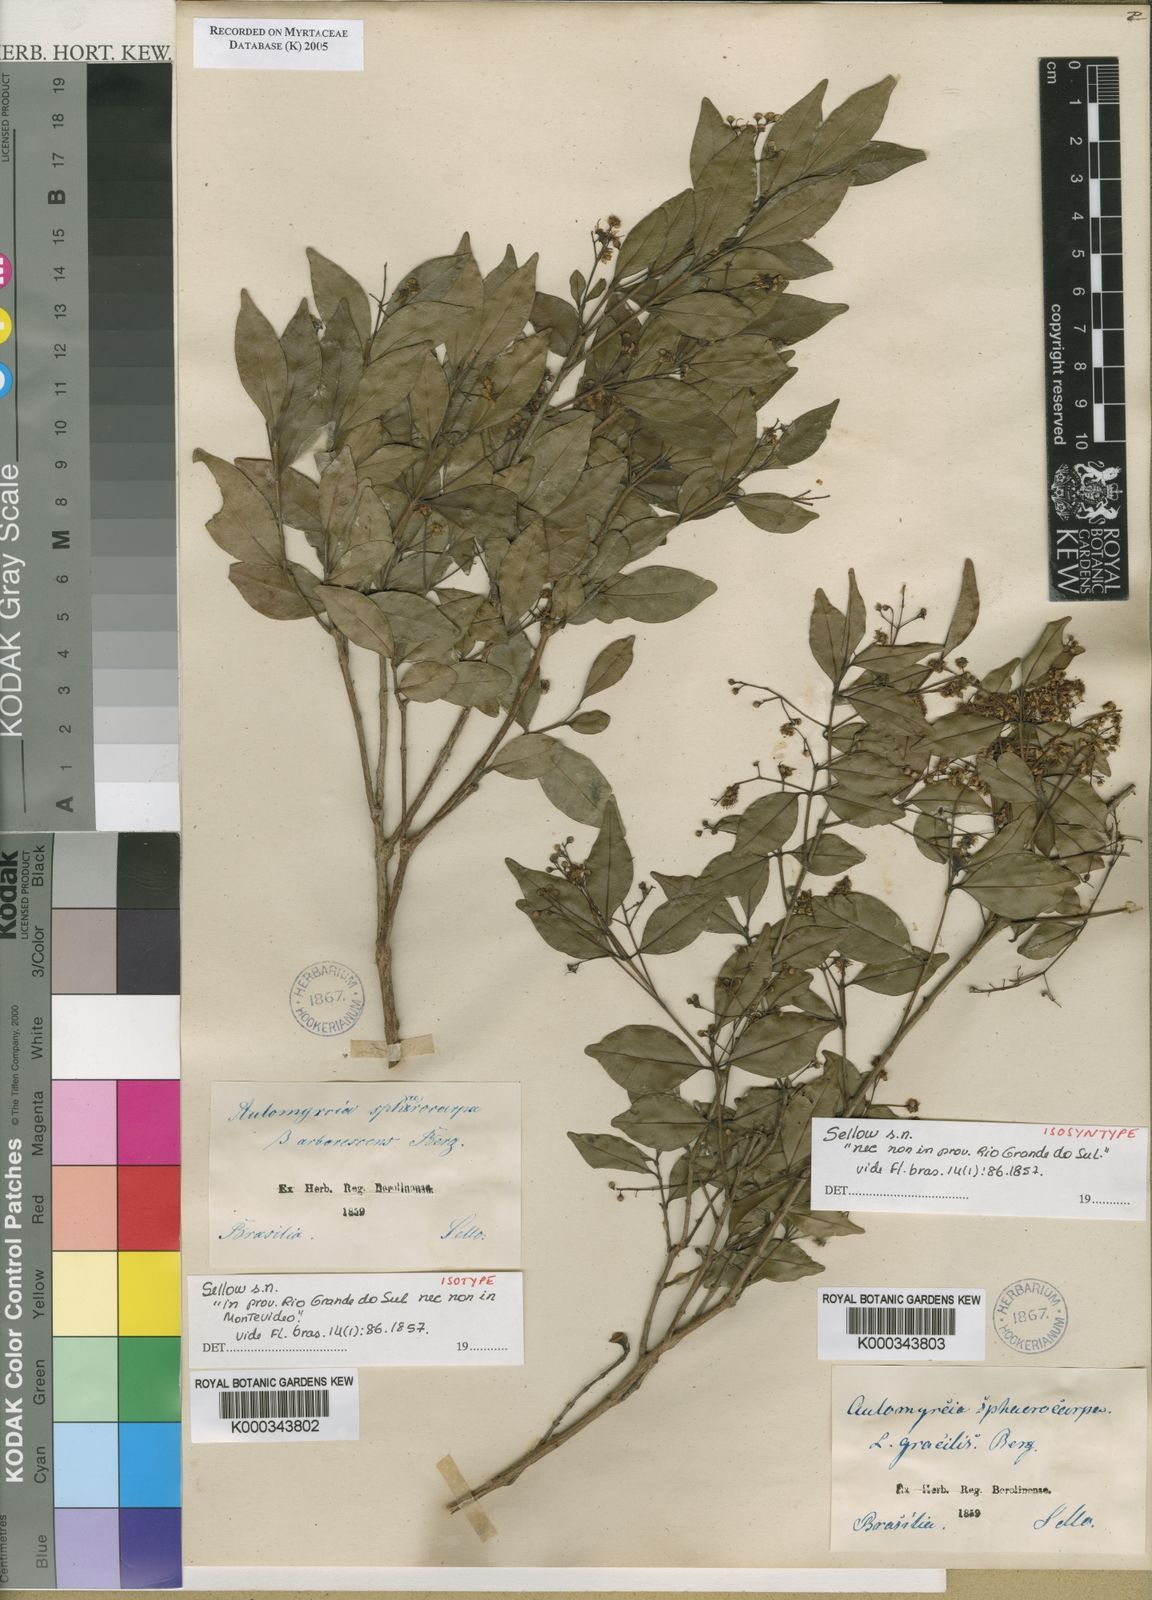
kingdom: Plantae
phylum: Tracheophyta
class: Magnoliopsida
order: Myrtales
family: Myrtaceae
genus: Myrcia
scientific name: Myrcia multiflora
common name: Pedra hume
